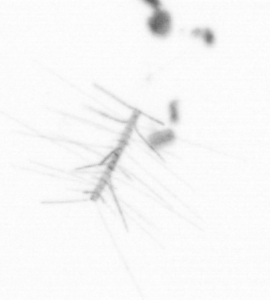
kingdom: Chromista
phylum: Ochrophyta
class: Bacillariophyceae
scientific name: Bacillariophyceae
